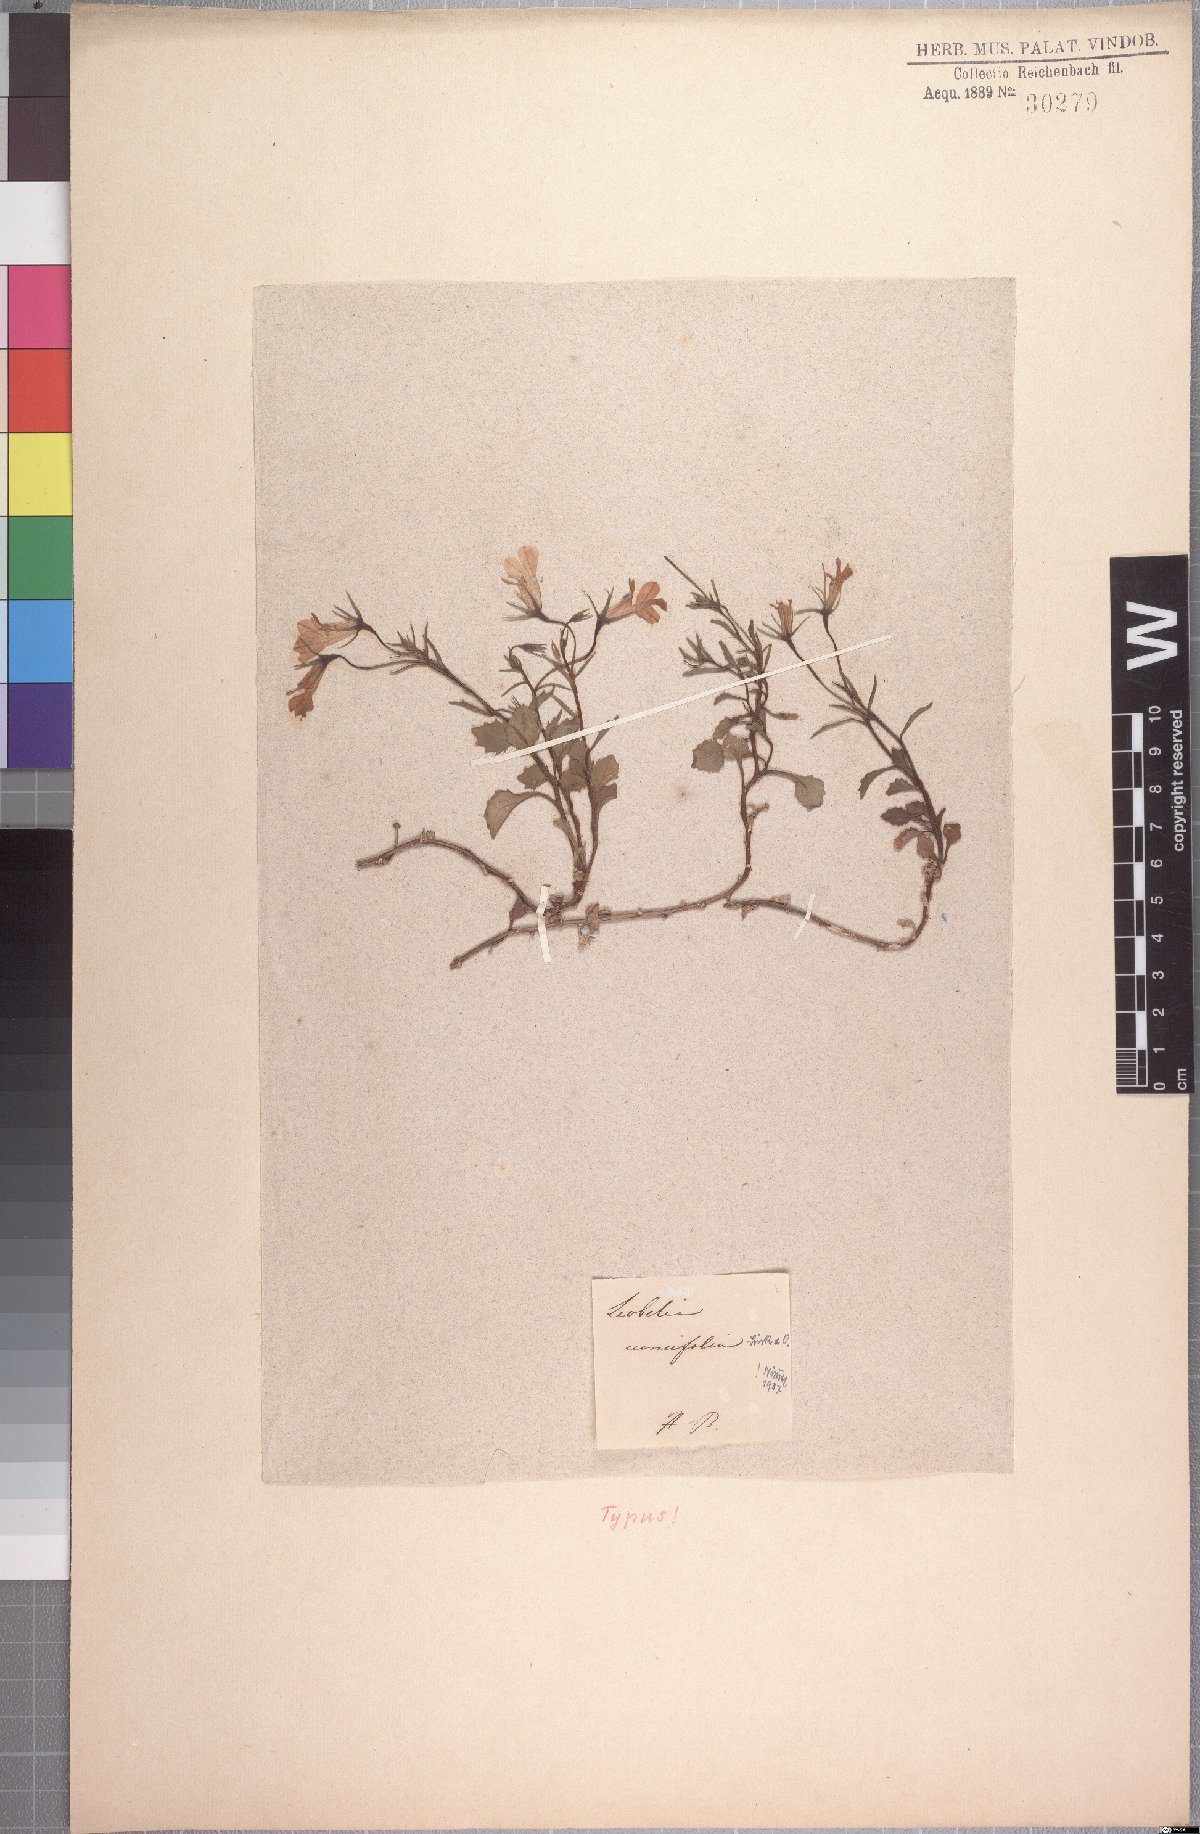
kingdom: Plantae
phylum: Tracheophyta
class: Magnoliopsida
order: Asterales
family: Campanulaceae
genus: Lobelia
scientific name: Lobelia cuneifolia
